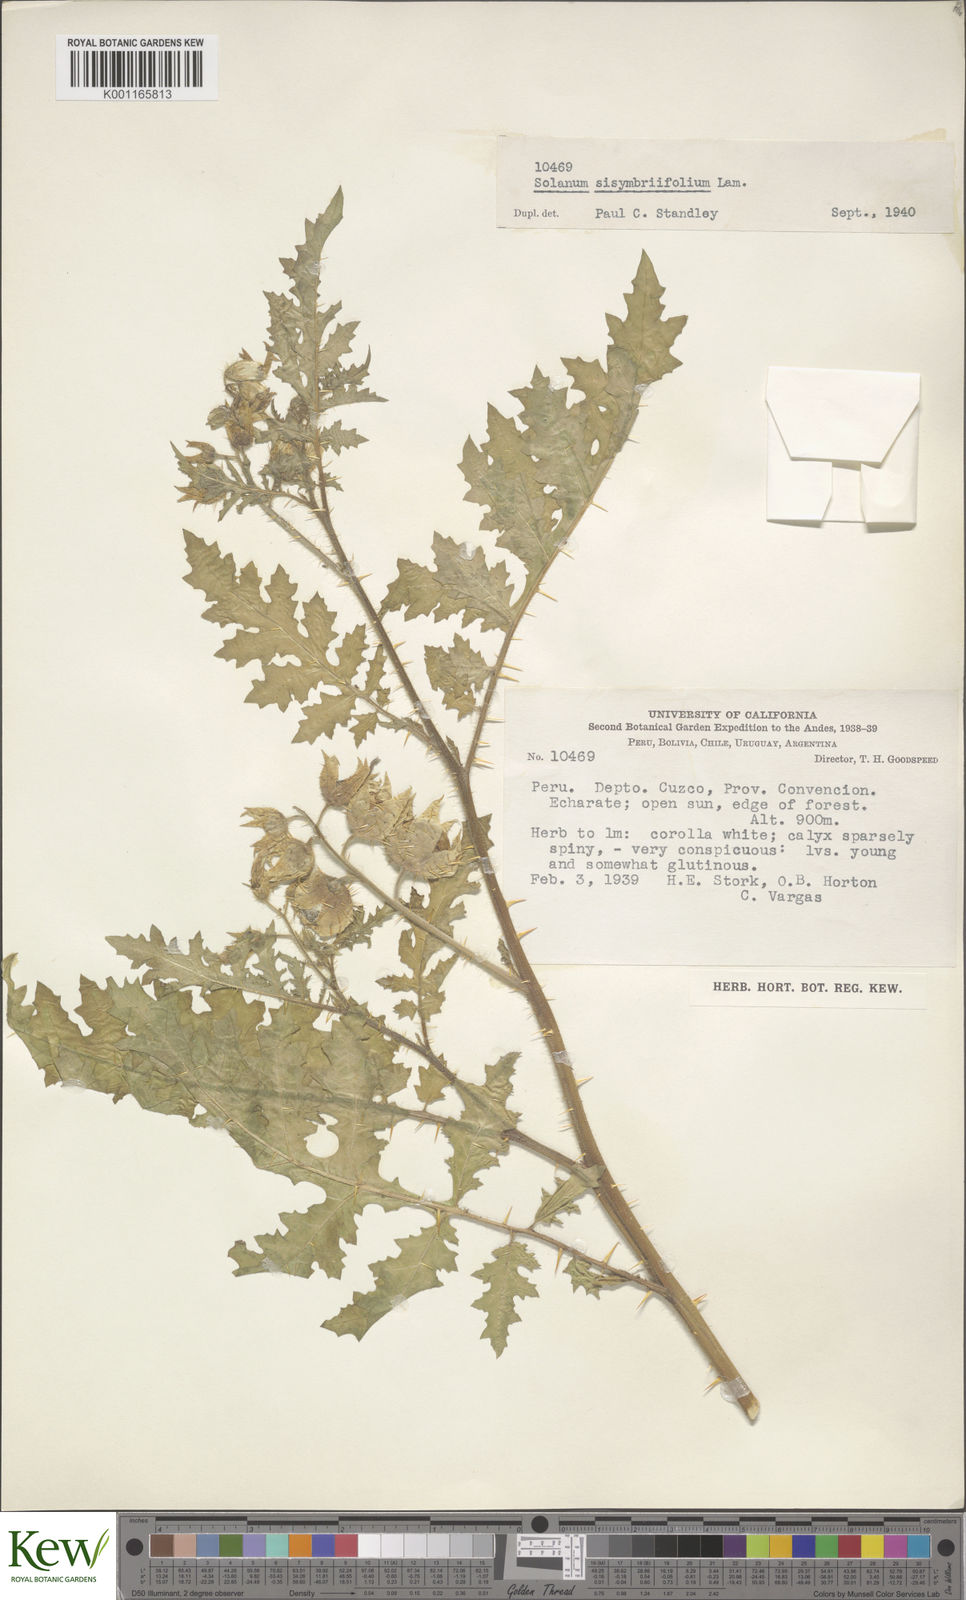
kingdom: Plantae
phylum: Tracheophyta
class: Magnoliopsida
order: Solanales
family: Solanaceae
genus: Solanum
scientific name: Solanum sisymbriifolium
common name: Red buffalo-bur
